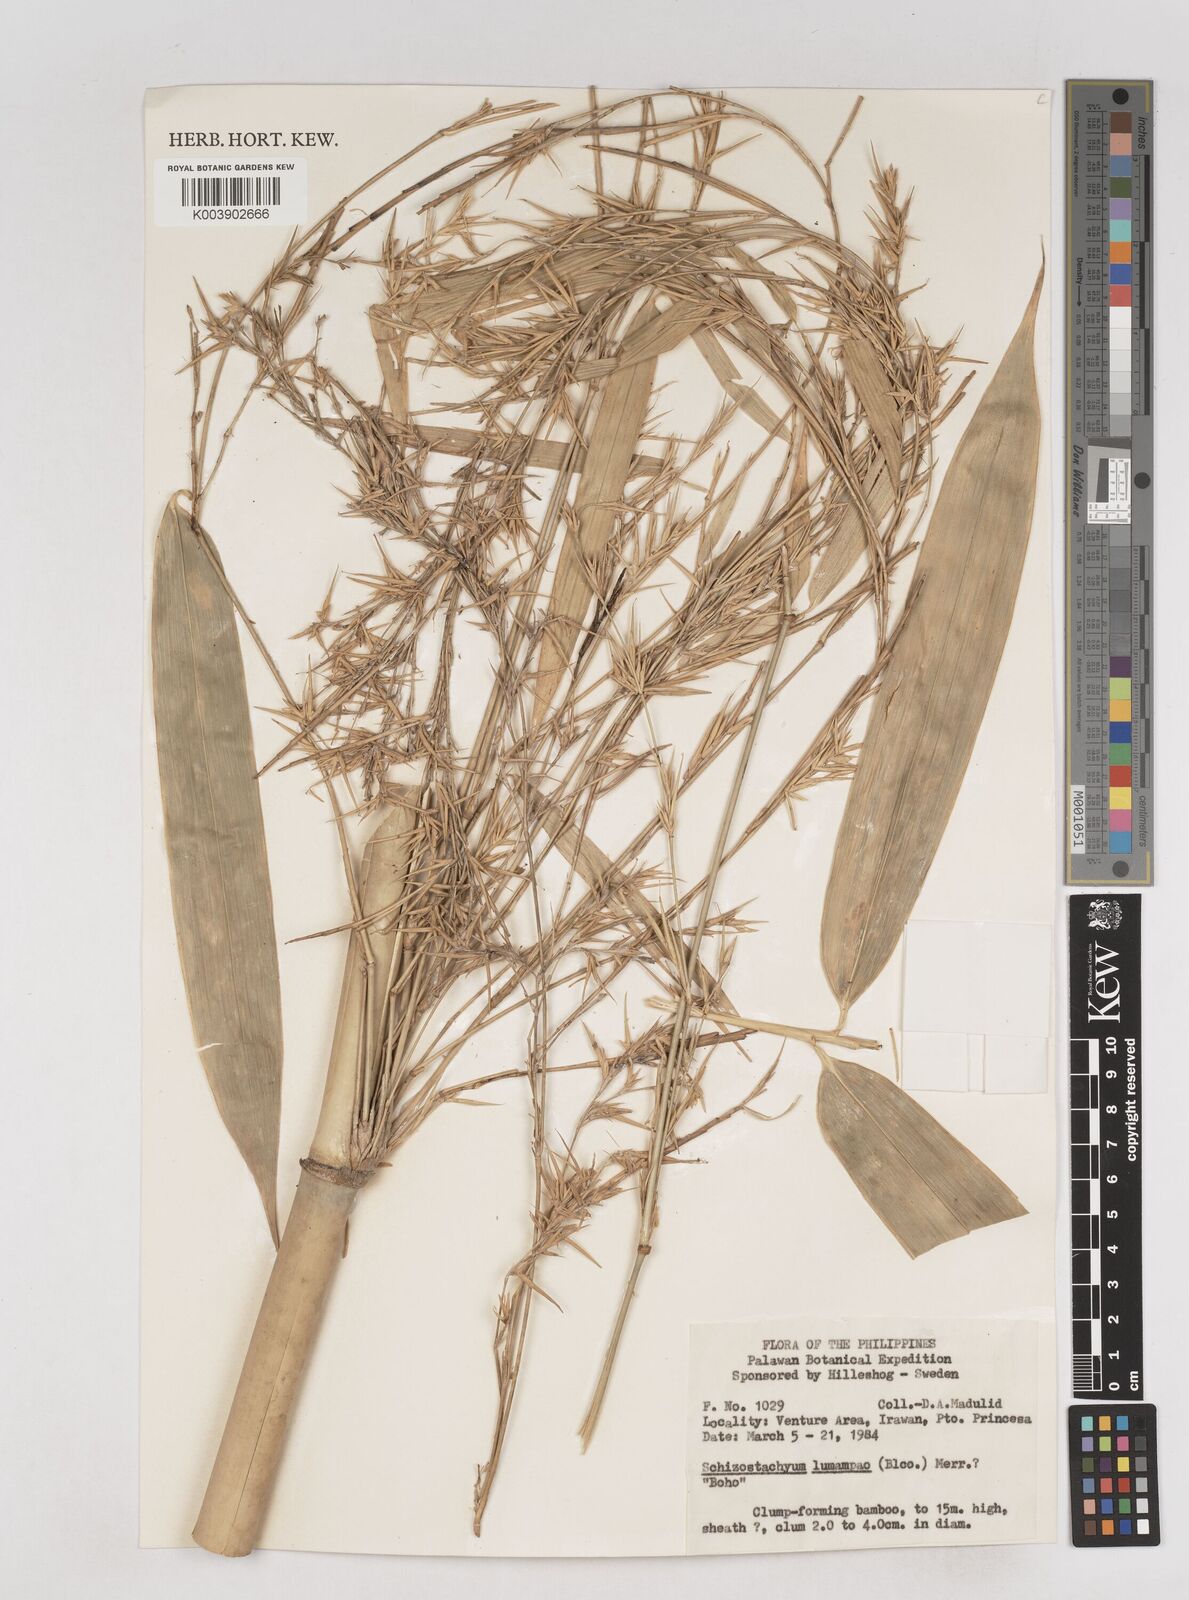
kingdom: Plantae
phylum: Tracheophyta
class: Liliopsida
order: Poales
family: Poaceae
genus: Schizostachyum
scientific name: Schizostachyum lumampao
